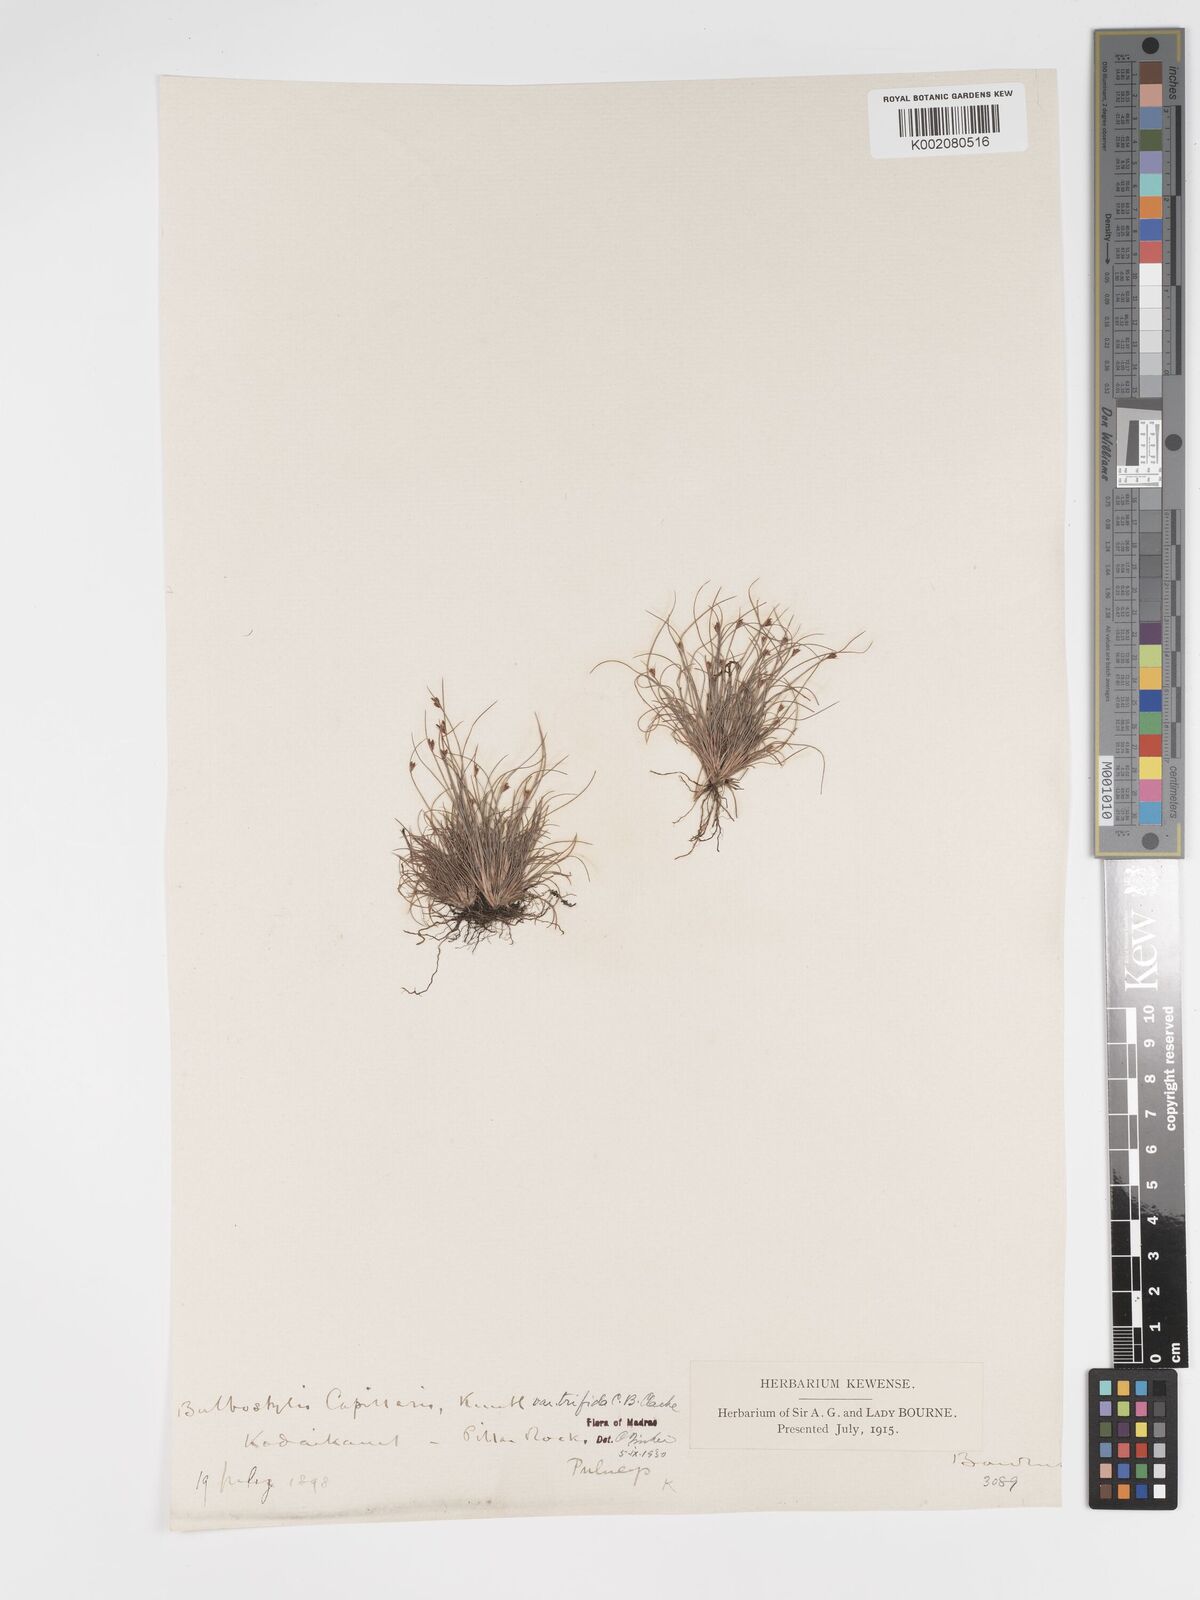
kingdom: Plantae
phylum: Tracheophyta
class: Liliopsida
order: Poales
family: Cyperaceae
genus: Bulbostylis
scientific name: Bulbostylis capillaris
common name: Densetuft hairsedge
